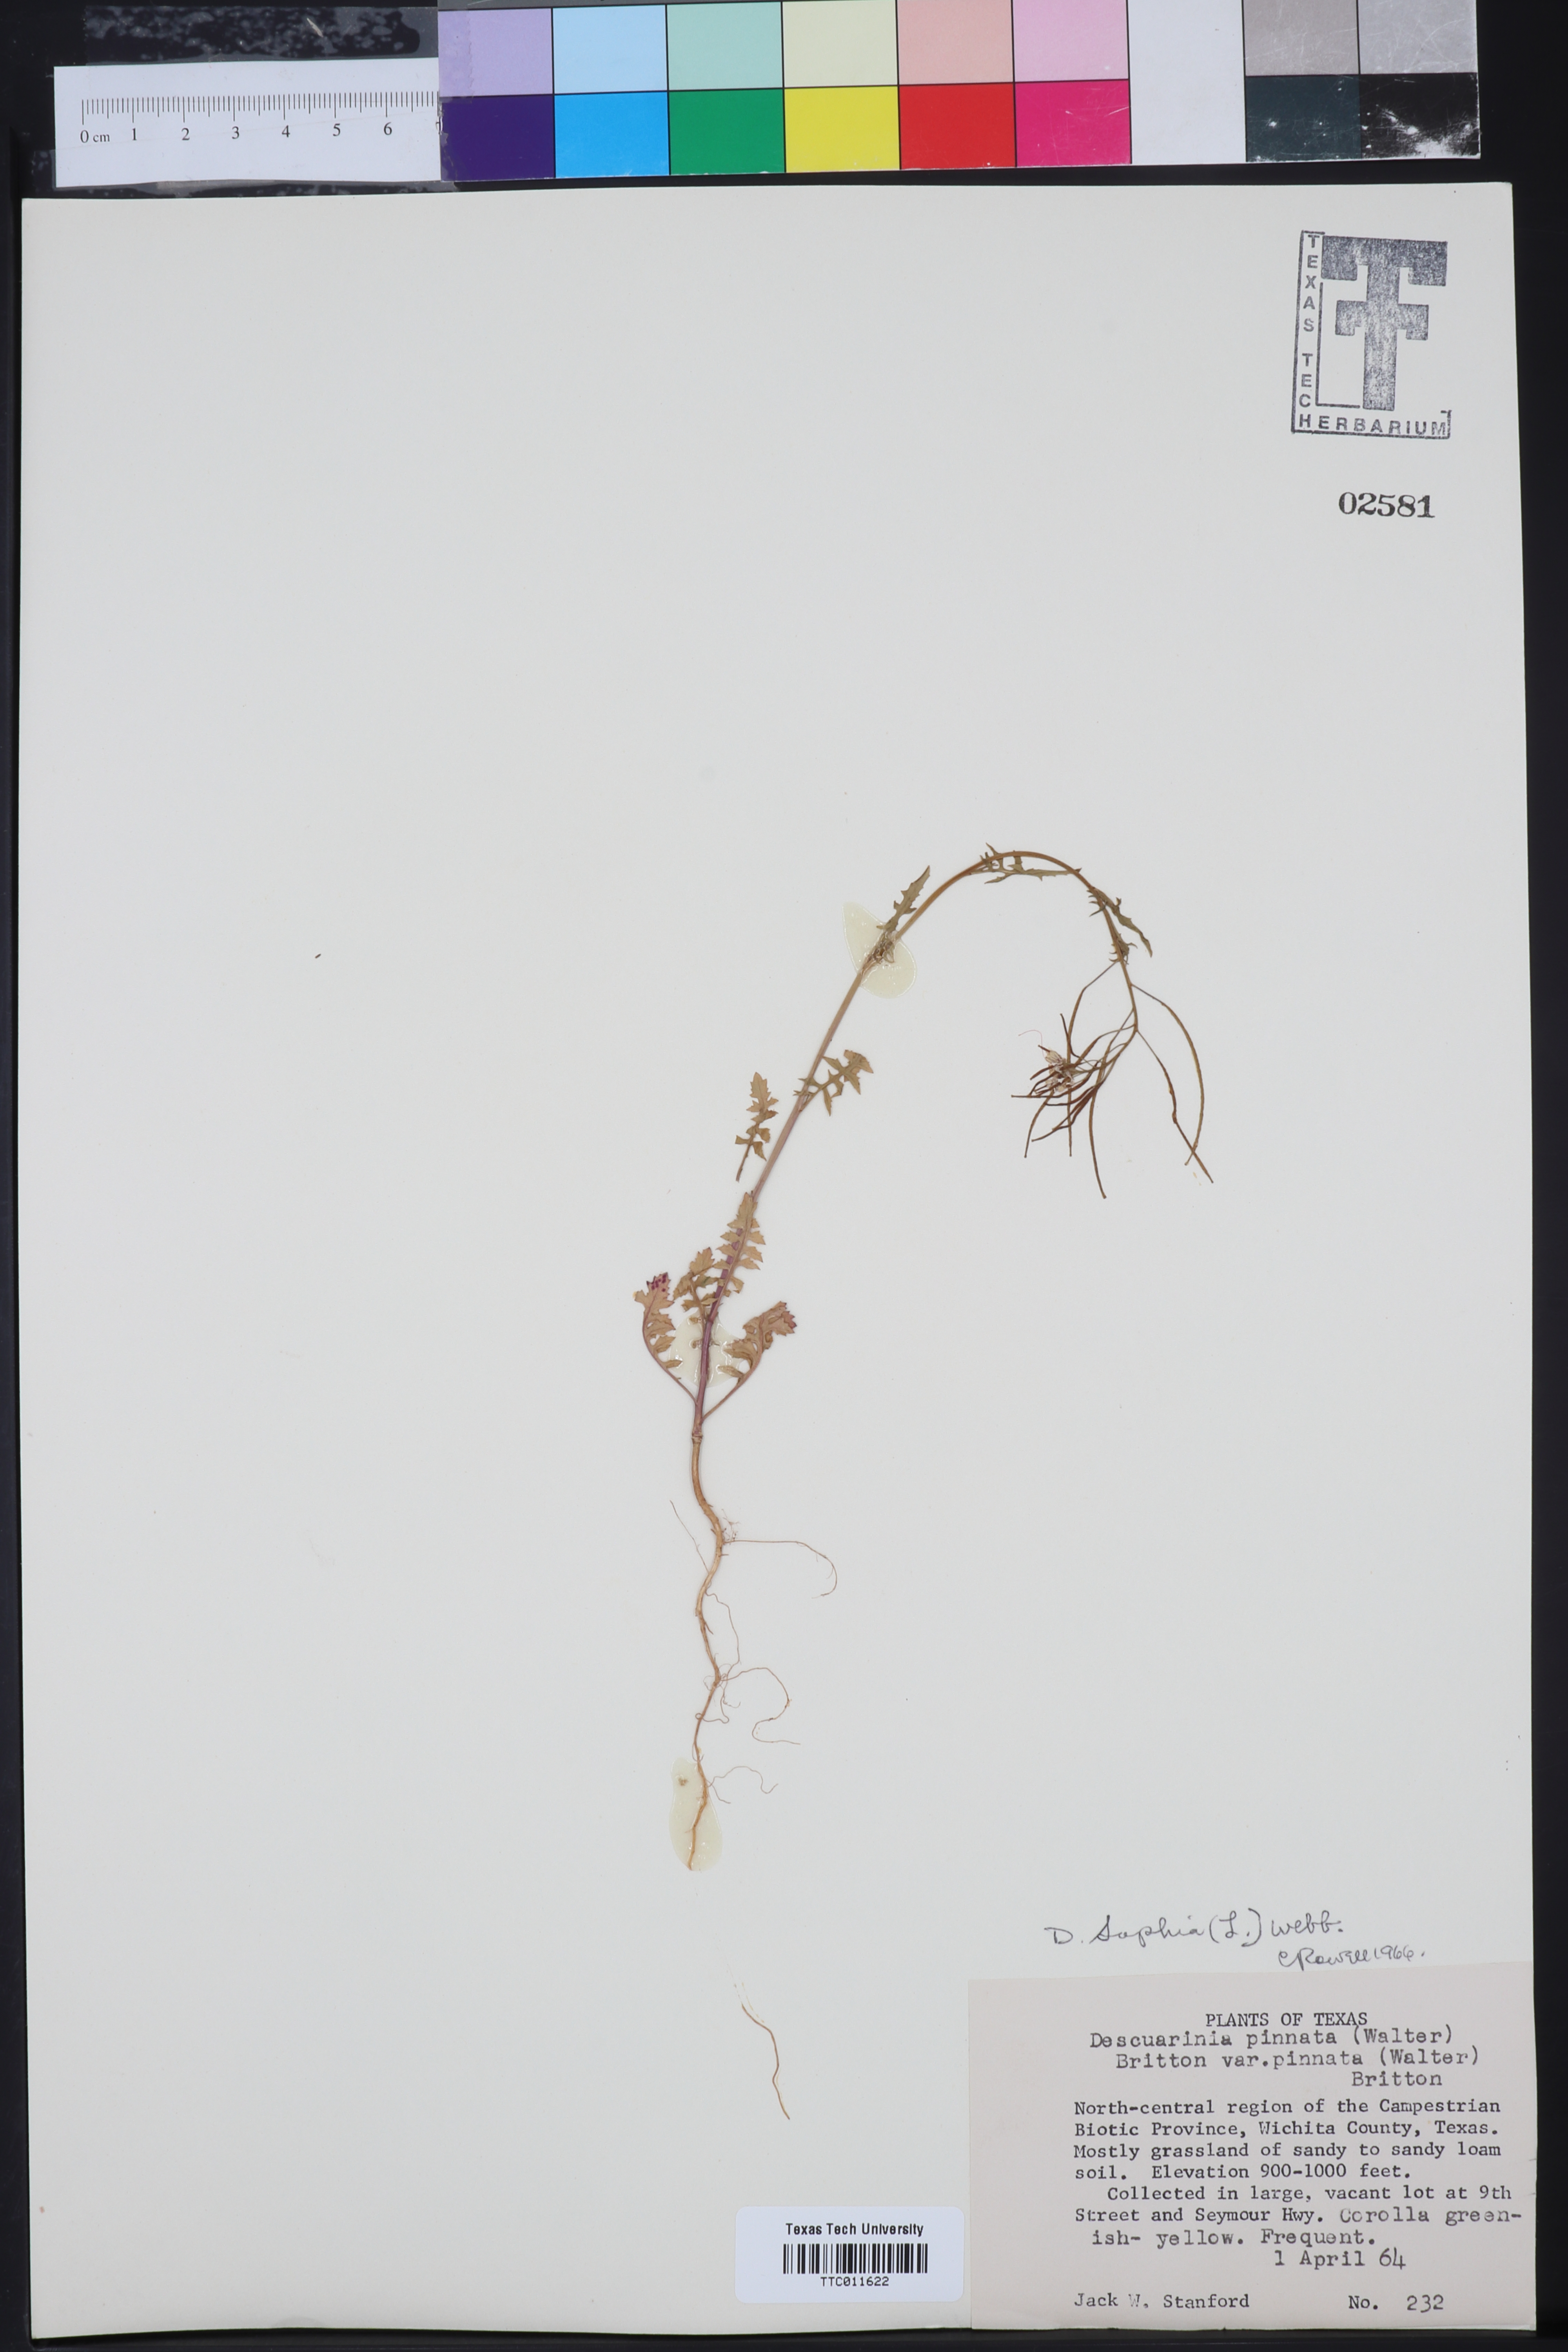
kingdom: Plantae
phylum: Tracheophyta
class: Magnoliopsida
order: Brassicales
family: Brassicaceae
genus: Descurainia
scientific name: Descurainia sophia
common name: Flixweed
